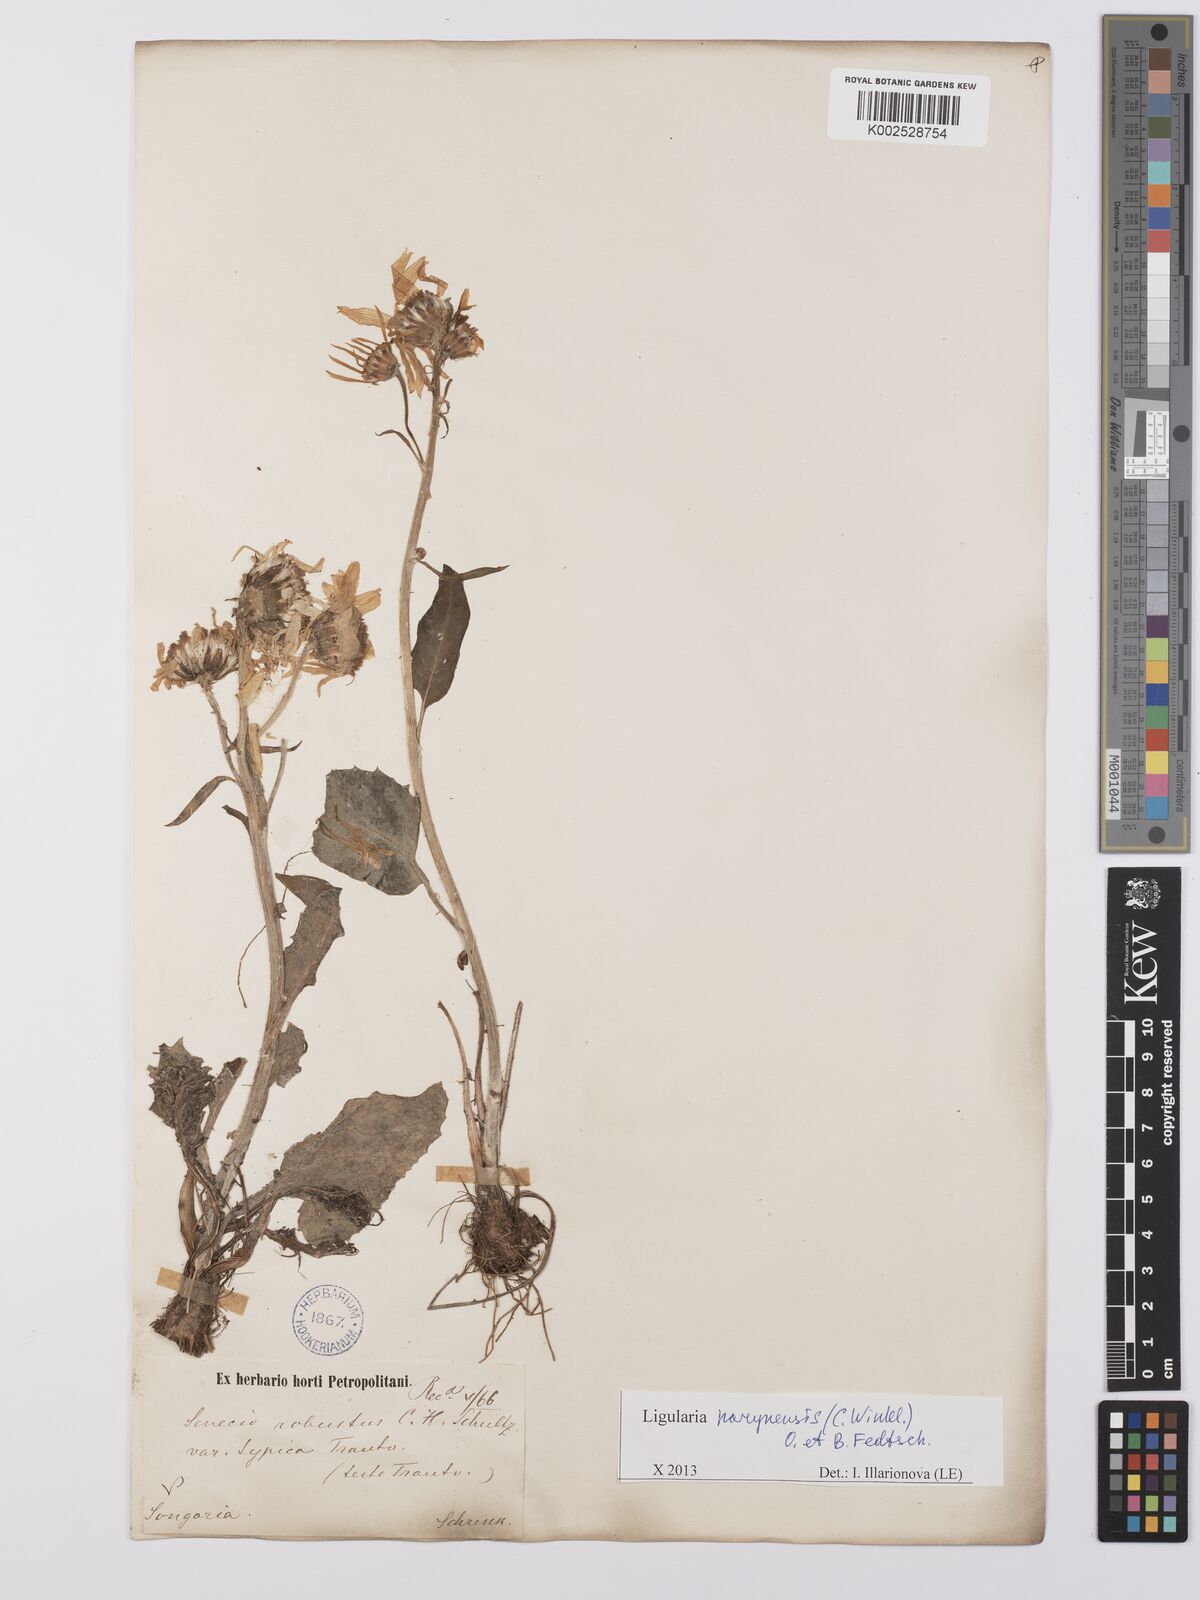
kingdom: Plantae
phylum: Tracheophyta
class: Magnoliopsida
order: Asterales
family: Asteraceae
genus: Vickifunkia
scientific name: Vickifunkia narynensis
